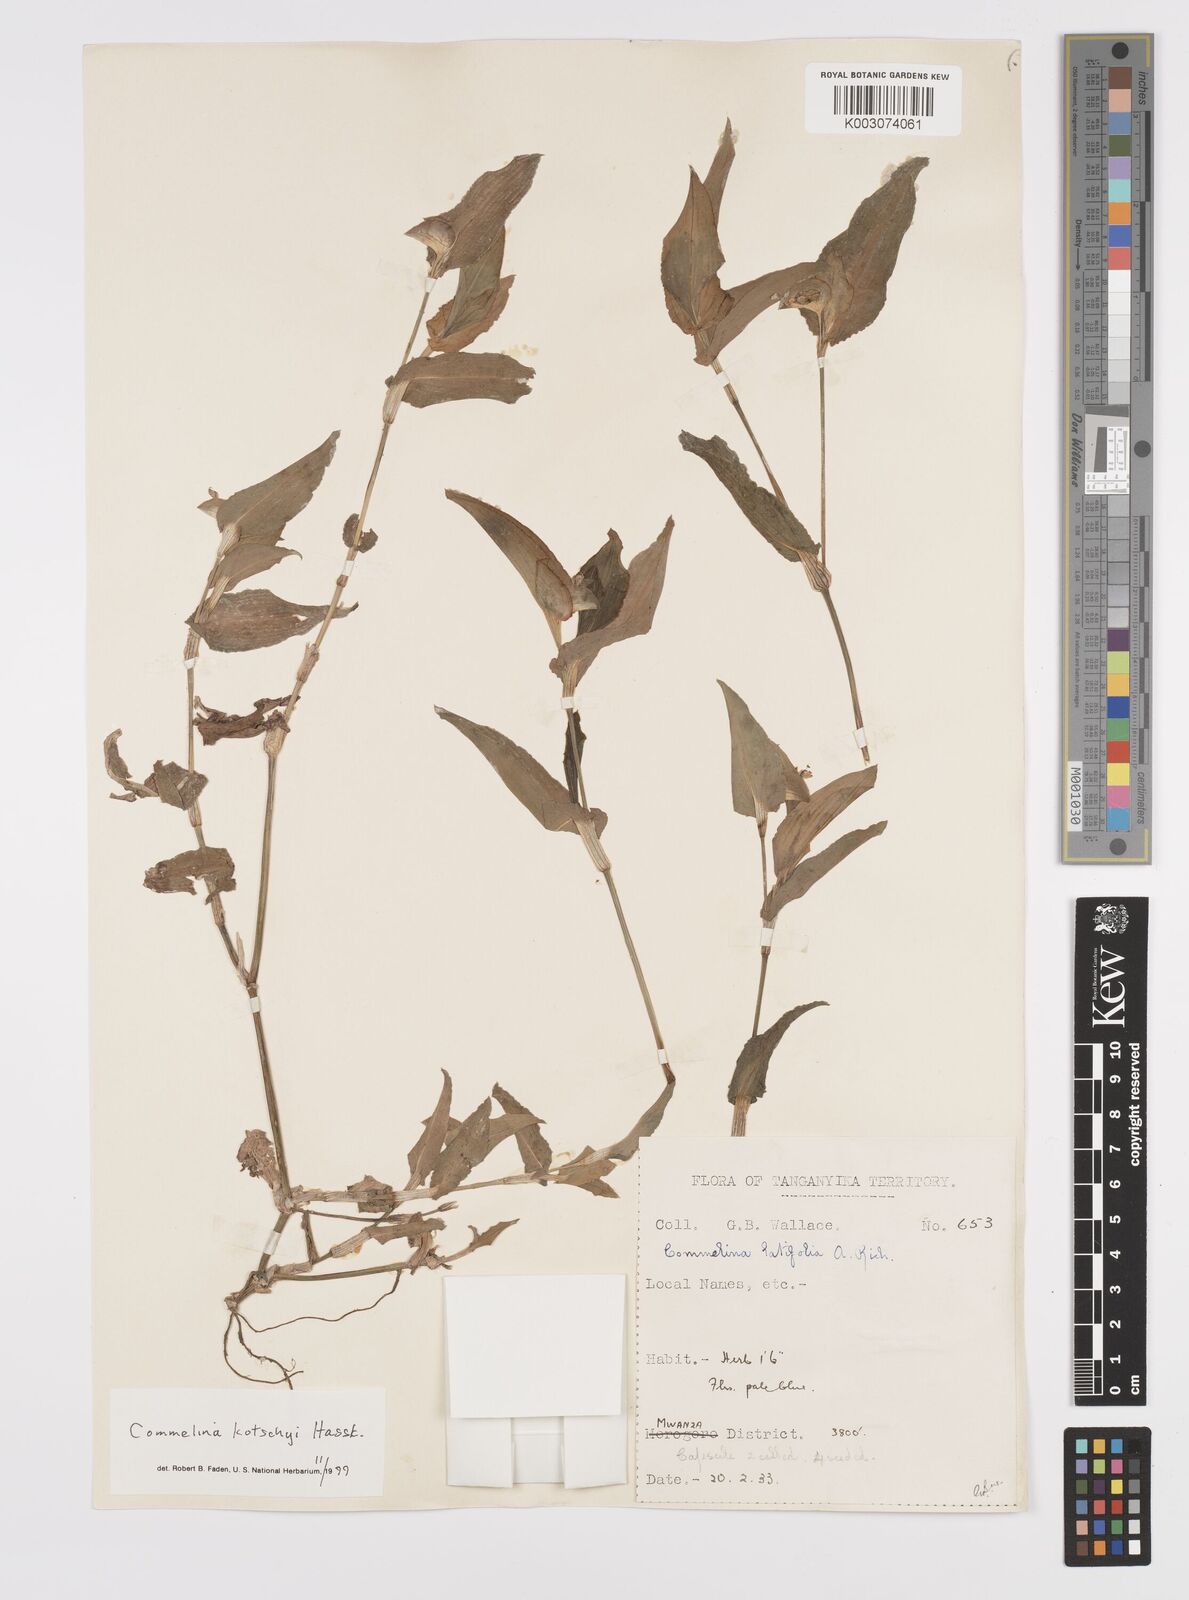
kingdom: Plantae
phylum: Tracheophyta
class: Liliopsida
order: Commelinales
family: Commelinaceae
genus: Commelina
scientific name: Commelina kotschyi
